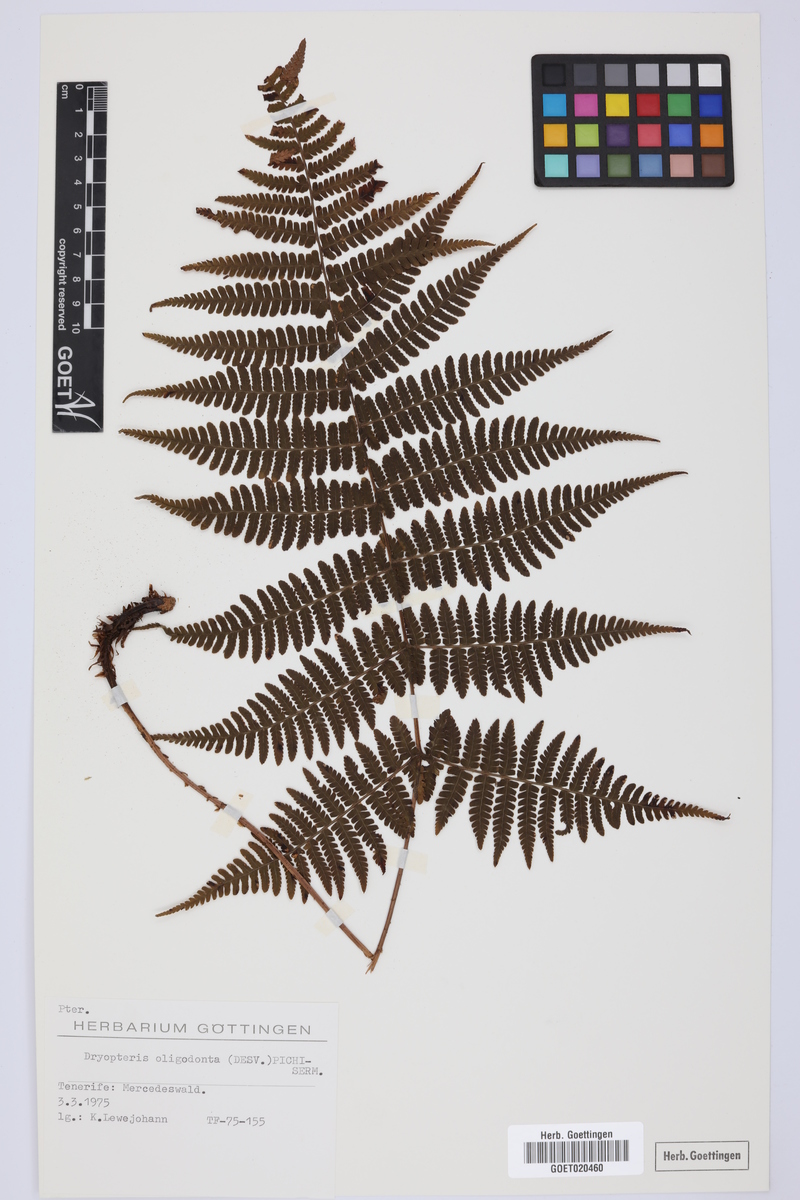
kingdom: Plantae
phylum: Tracheophyta
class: Polypodiopsida
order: Polypodiales
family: Dryopteridaceae
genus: Dryopteris
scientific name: Dryopteris oligodonta
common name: Canarian male-fern
